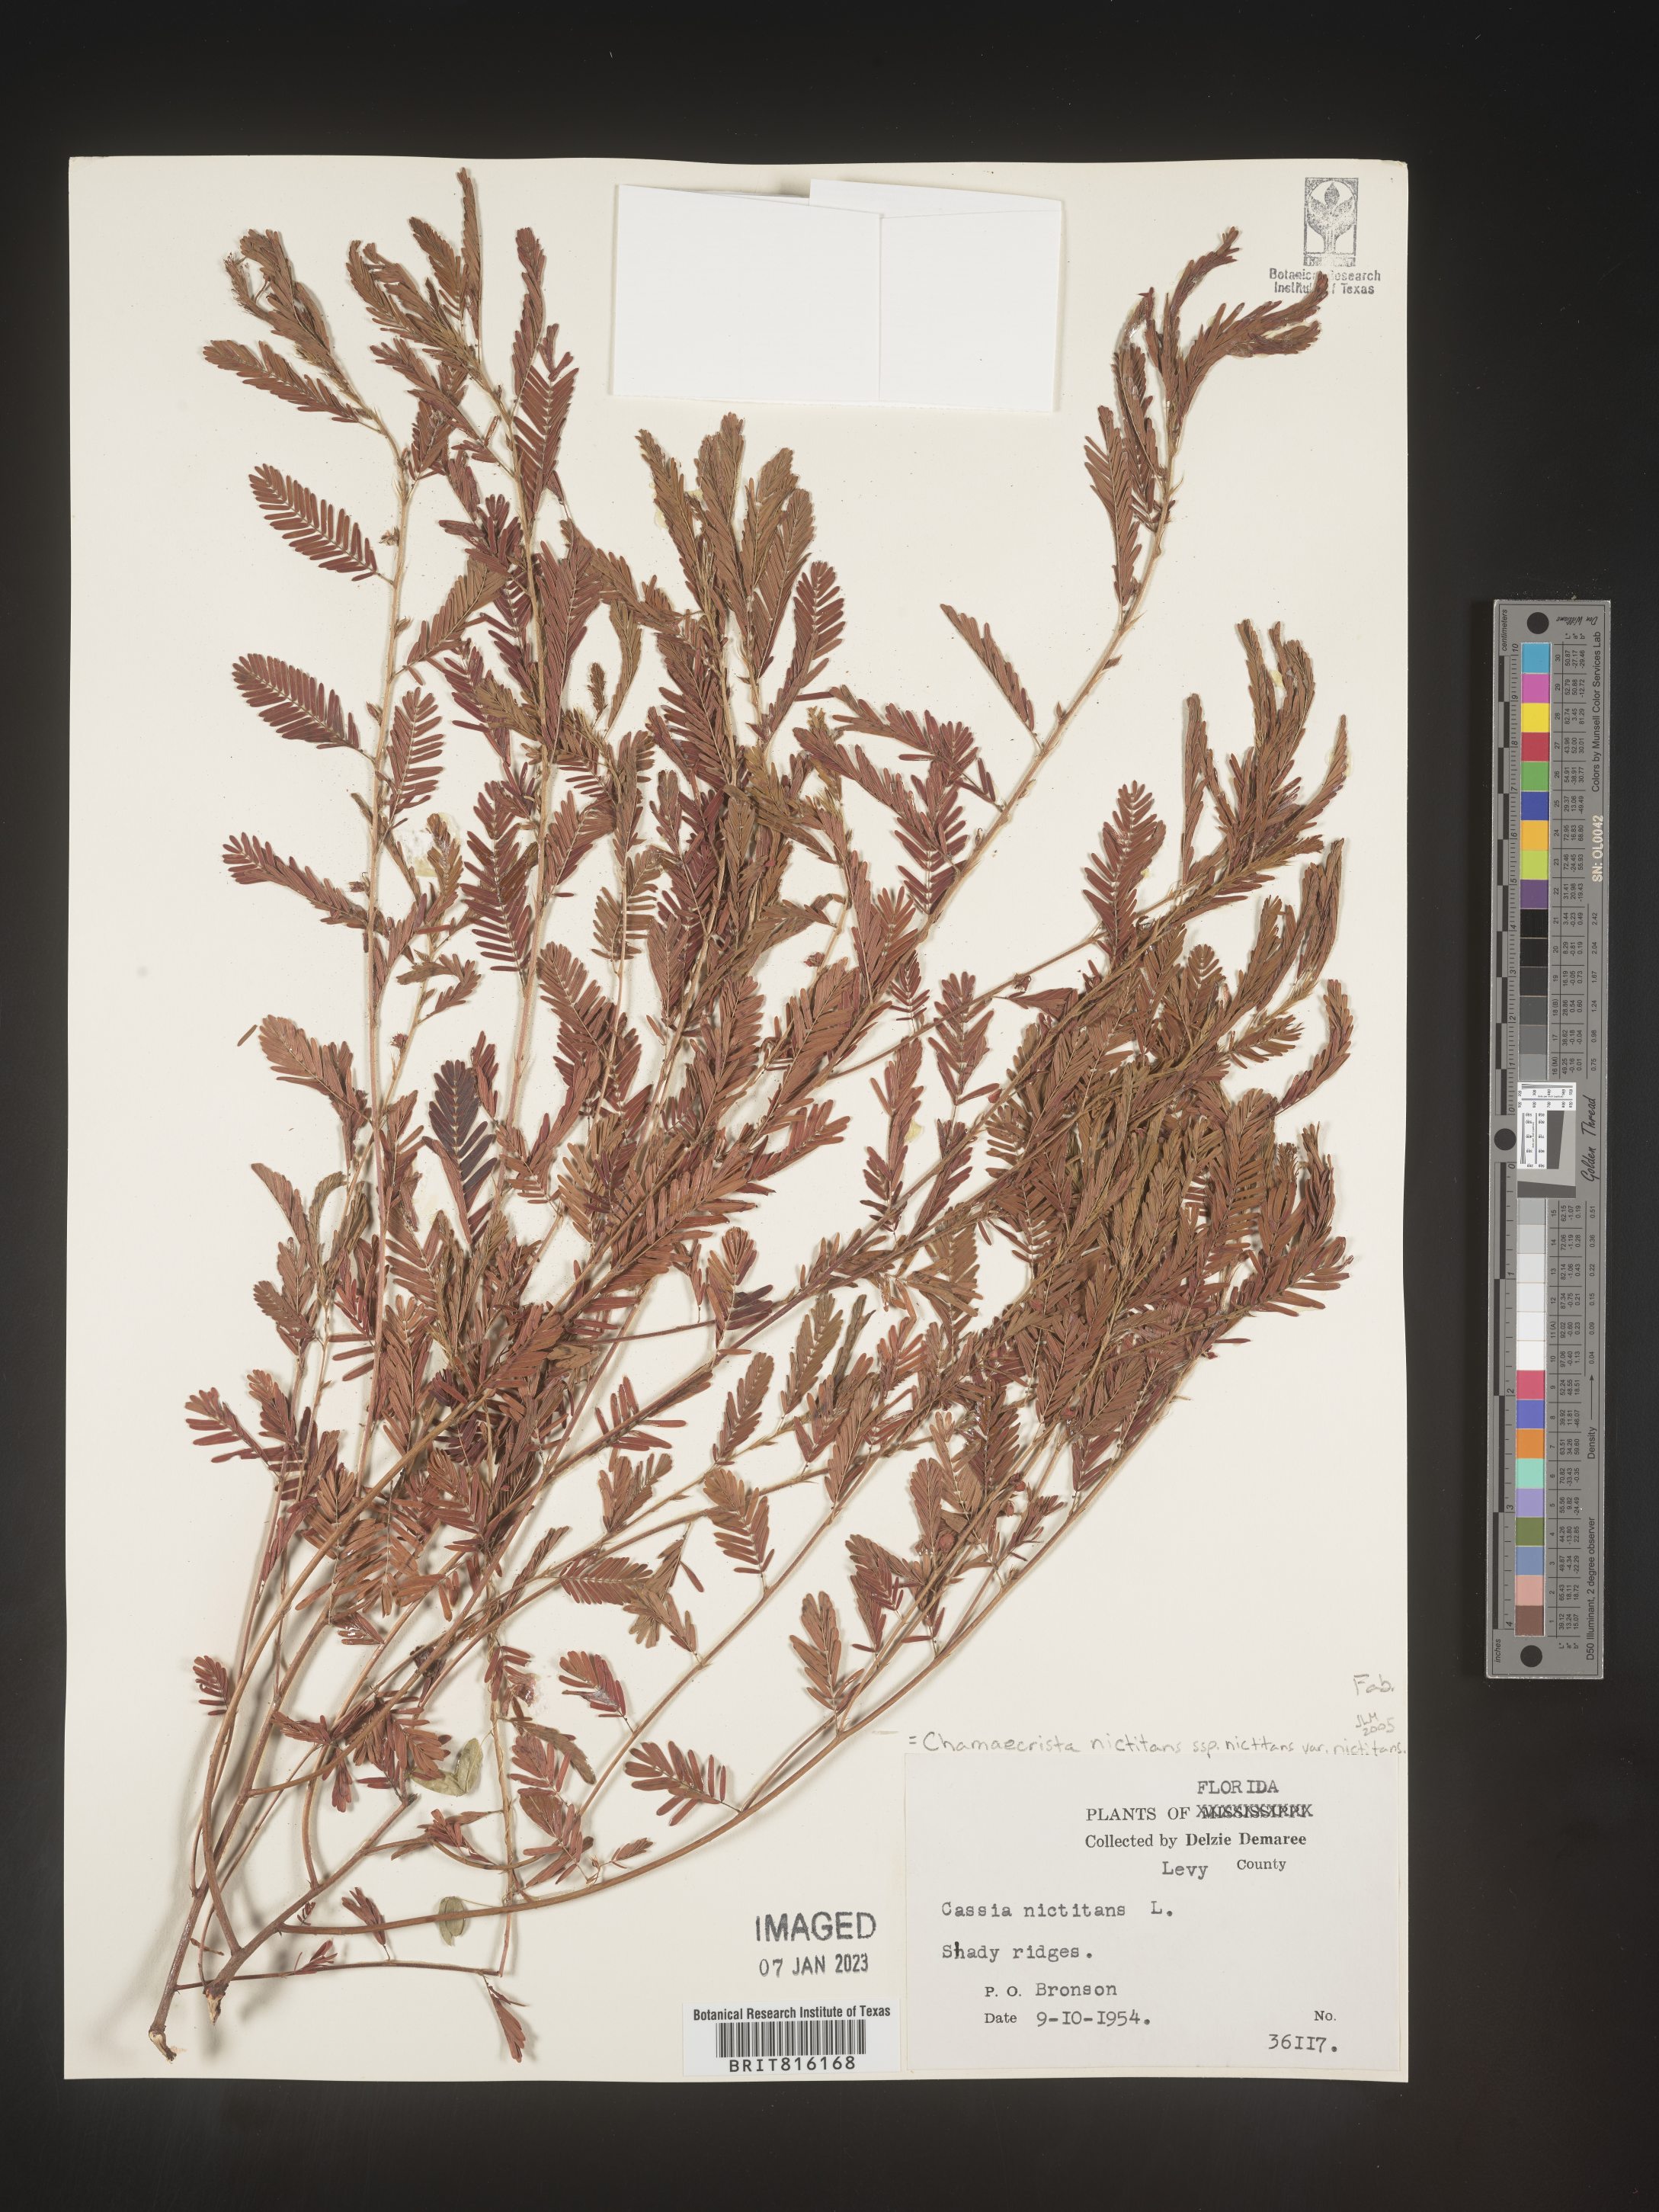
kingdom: Plantae
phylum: Tracheophyta
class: Magnoliopsida
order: Fabales
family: Fabaceae
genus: Chamaecrista
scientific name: Chamaecrista
